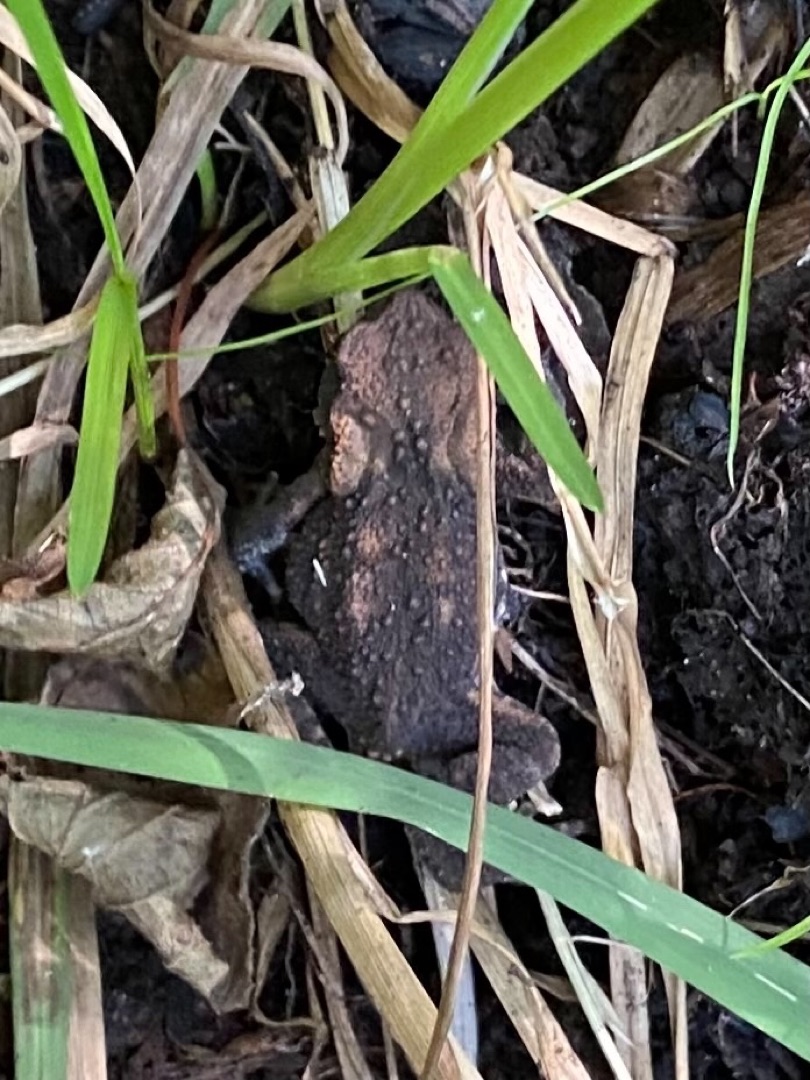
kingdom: Animalia
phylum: Chordata
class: Amphibia
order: Anura
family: Bufonidae
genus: Bufo
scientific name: Bufo bufo
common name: Skrubtudse
